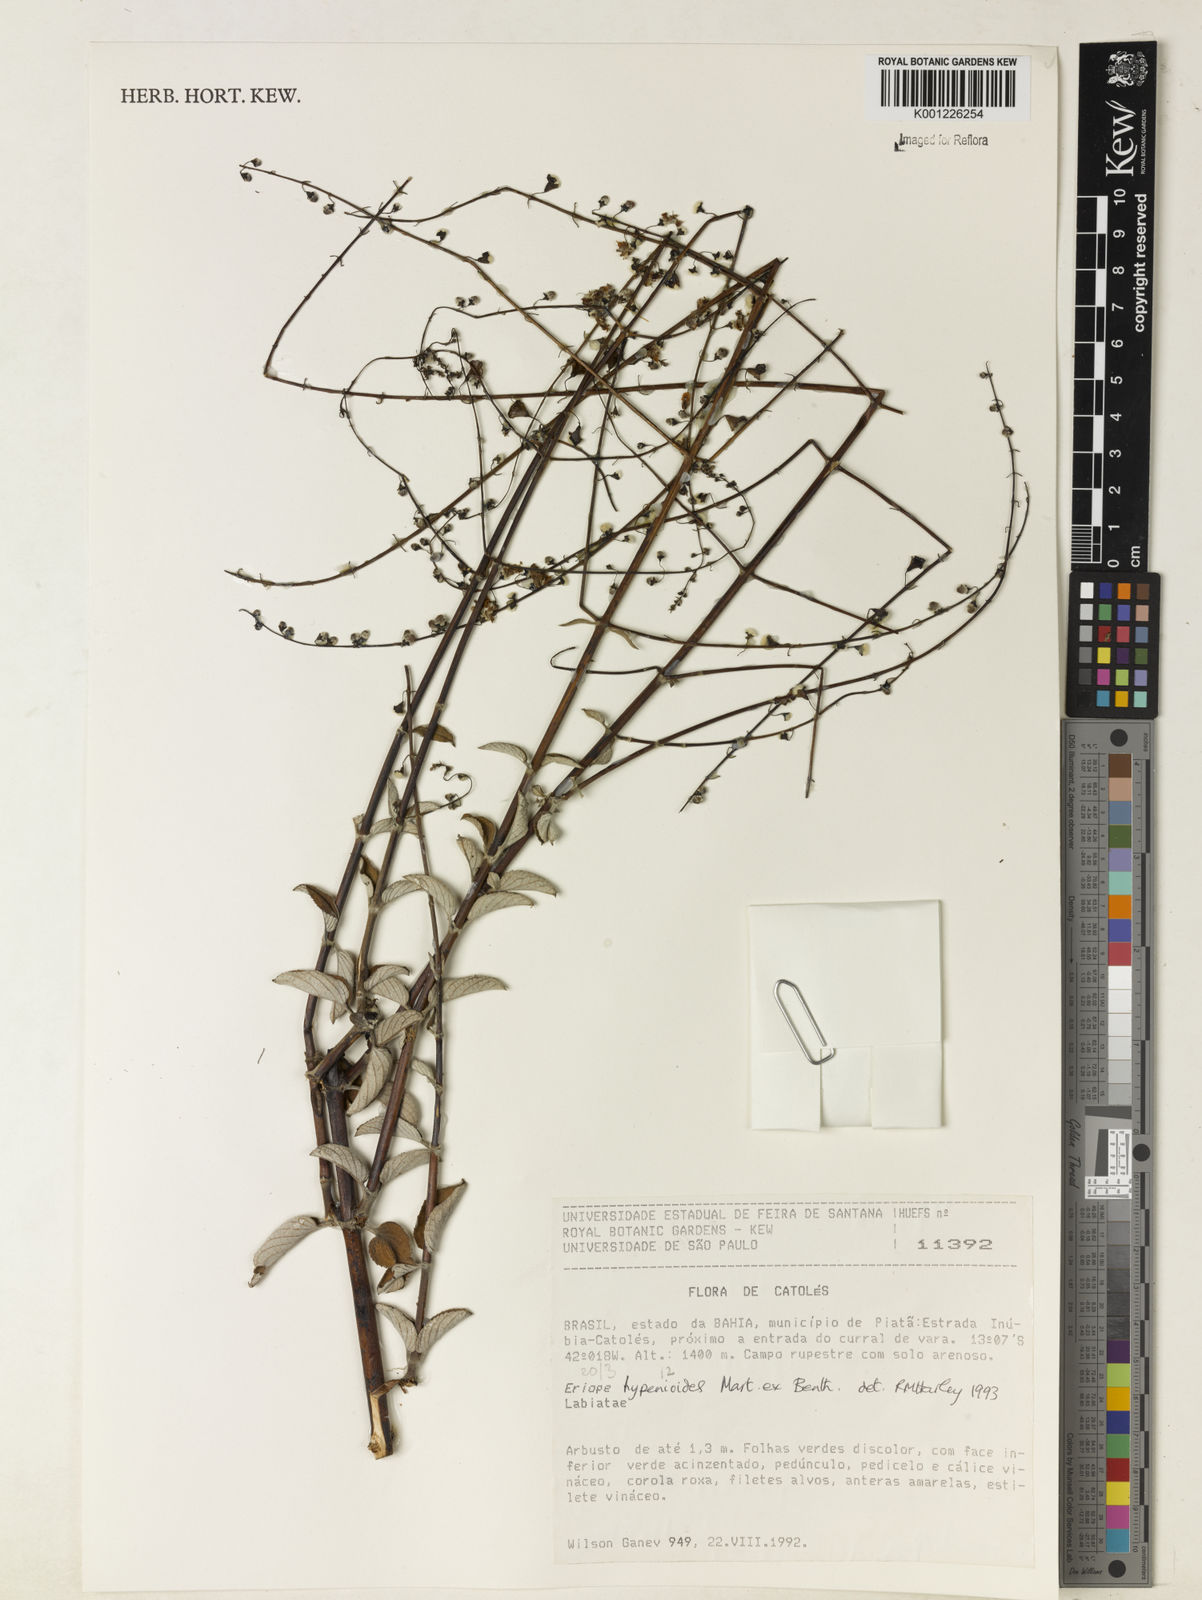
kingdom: Plantae
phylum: Tracheophyta
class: Magnoliopsida
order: Lamiales
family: Lamiaceae
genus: Eriope
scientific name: Eriope hypenioides
